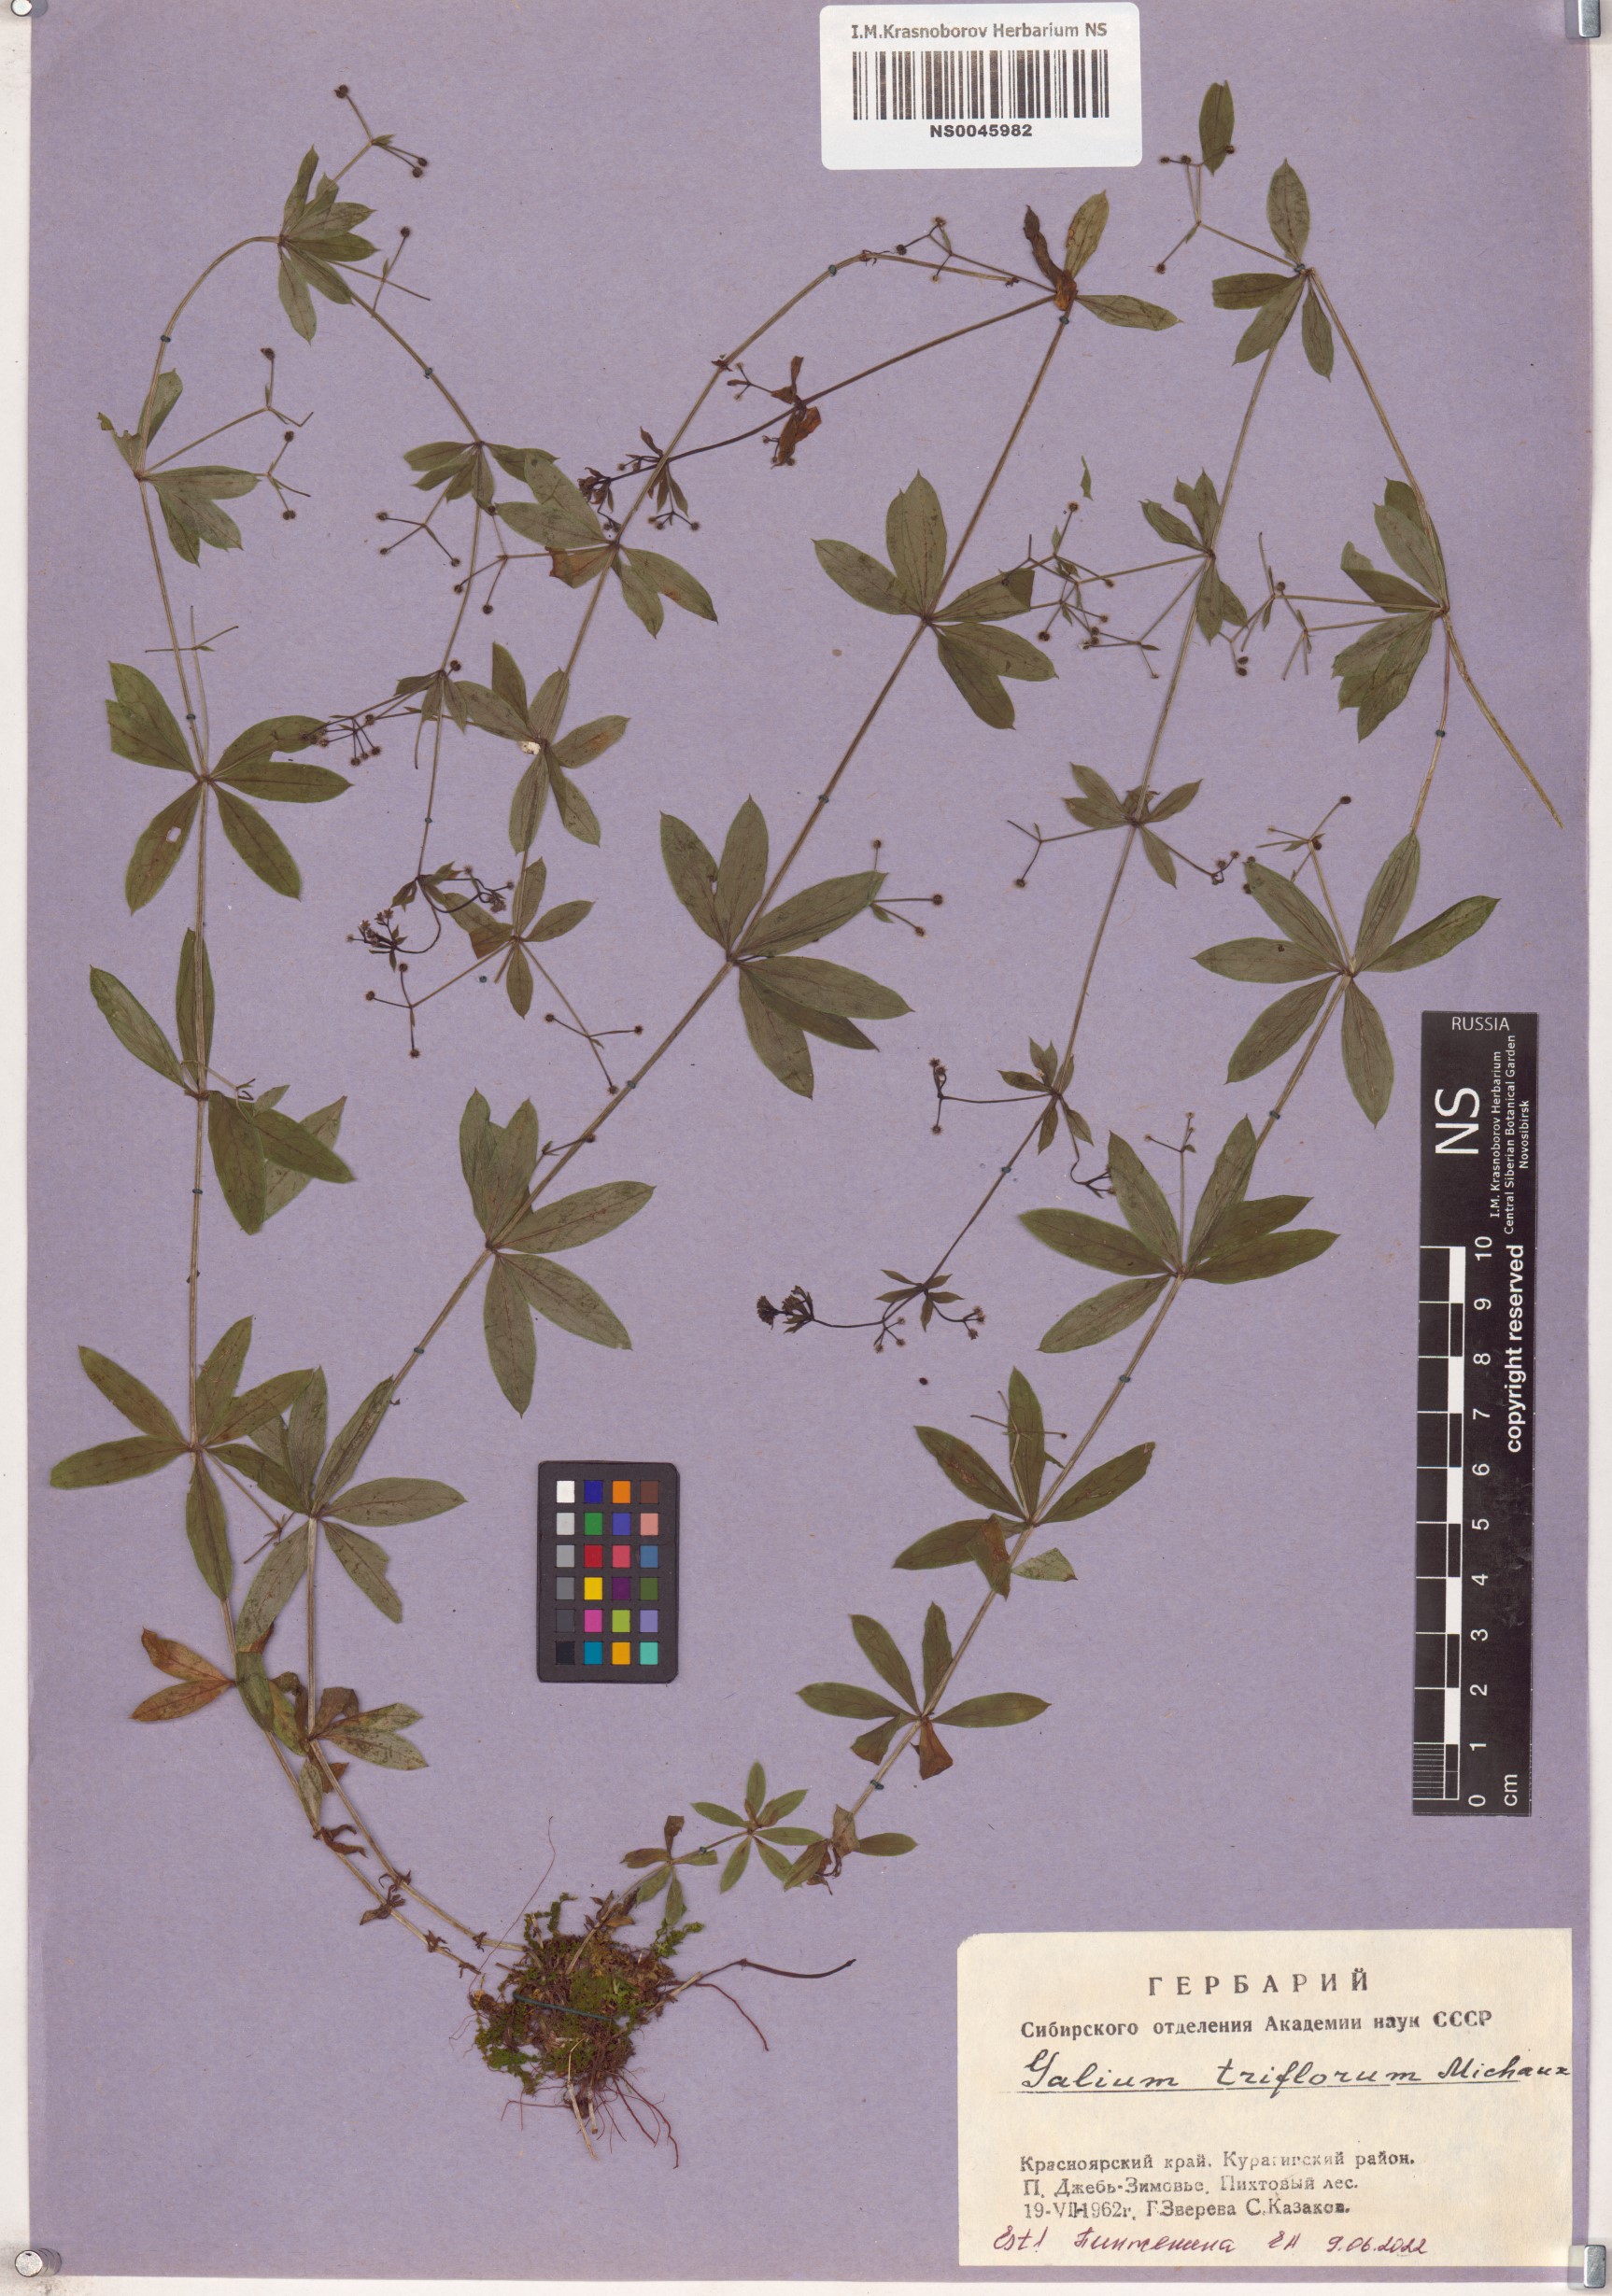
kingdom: Plantae
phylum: Tracheophyta
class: Magnoliopsida
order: Gentianales
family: Rubiaceae
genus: Galium
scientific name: Galium triflorum
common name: Fragrant bedstraw
